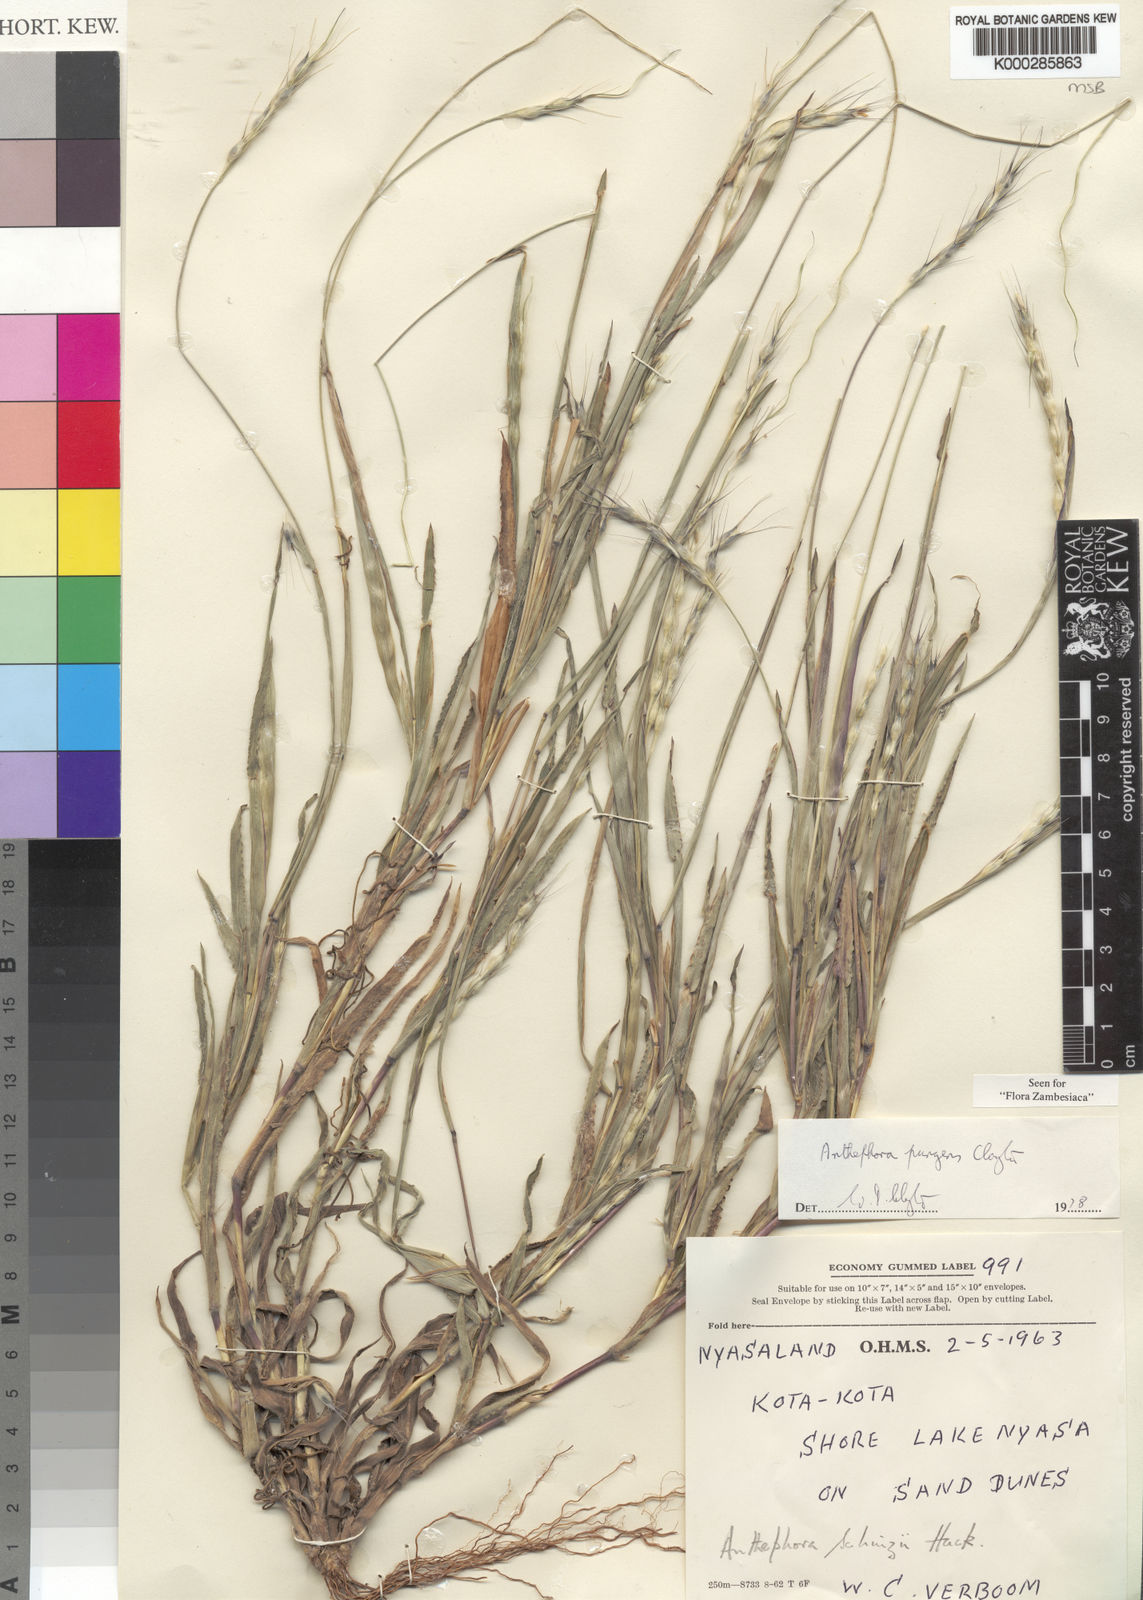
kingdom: Plantae
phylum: Tracheophyta
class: Liliopsida
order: Poales
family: Poaceae
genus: Anthephora
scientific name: Anthephora pungens
